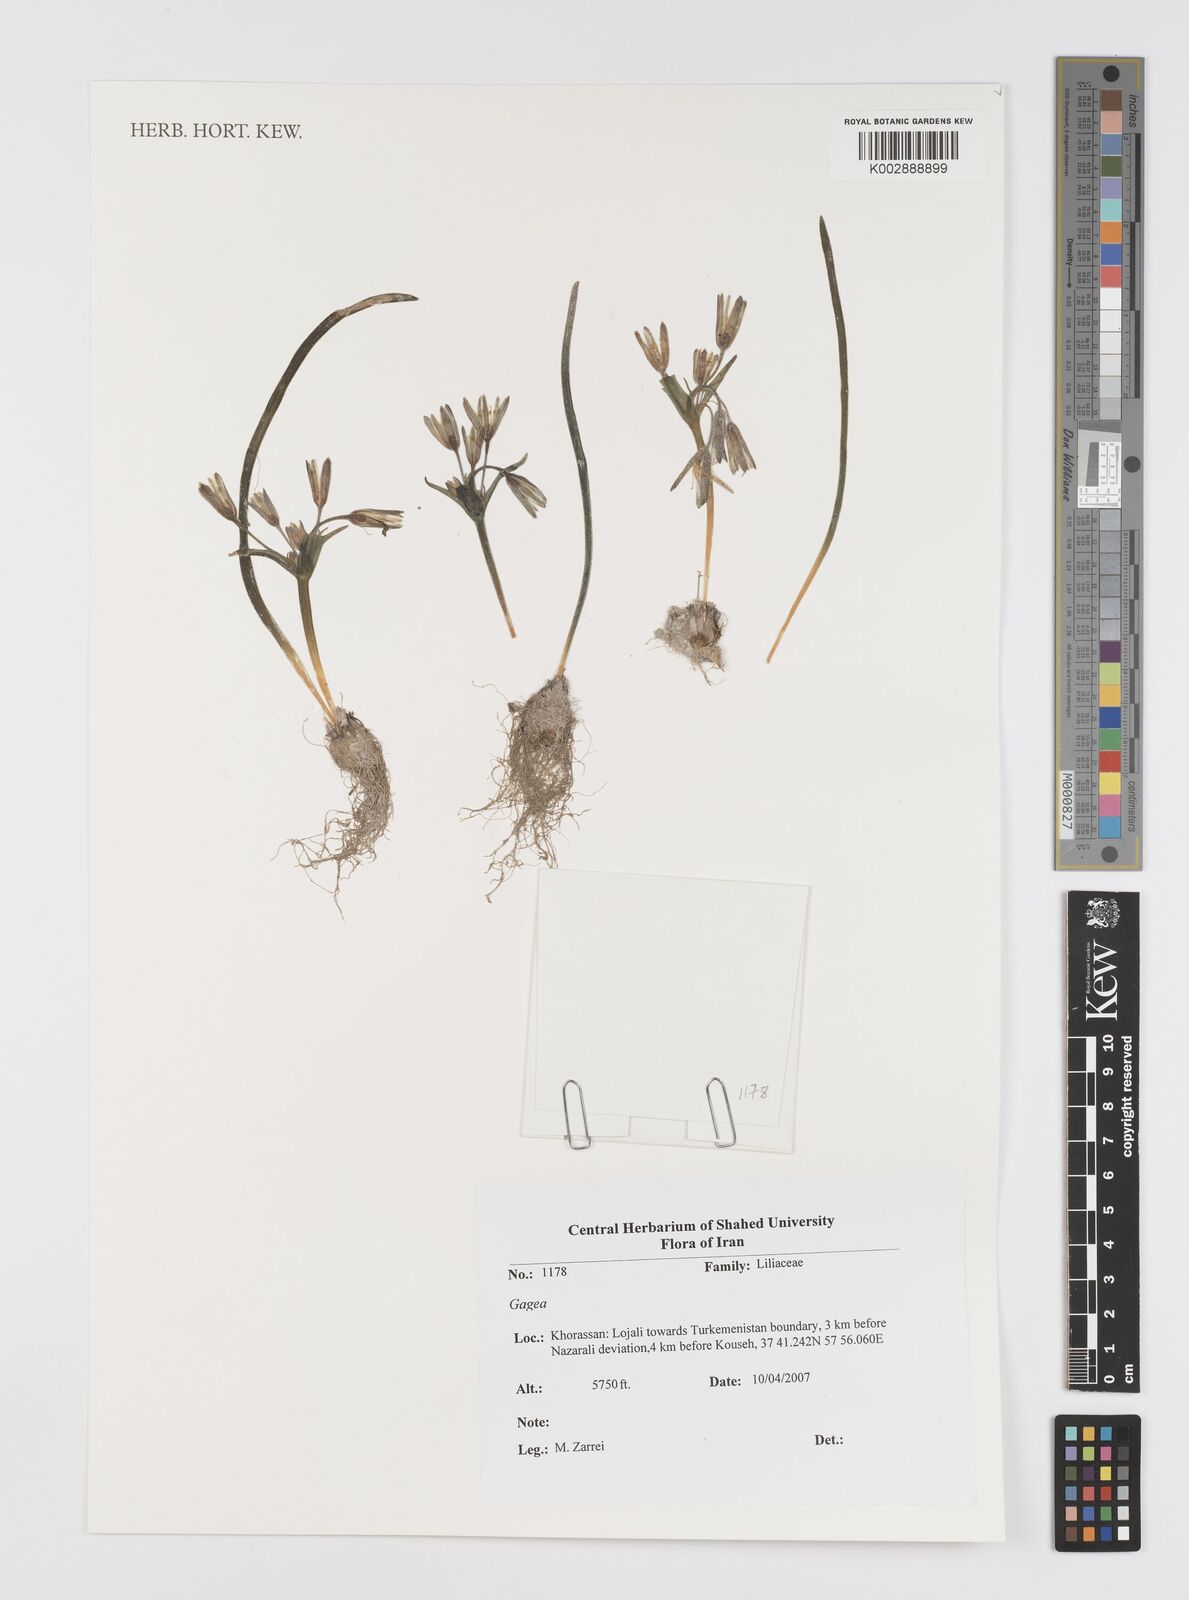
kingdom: Plantae
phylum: Tracheophyta
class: Liliopsida
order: Liliales
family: Liliaceae
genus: Gagea
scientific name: Gagea
